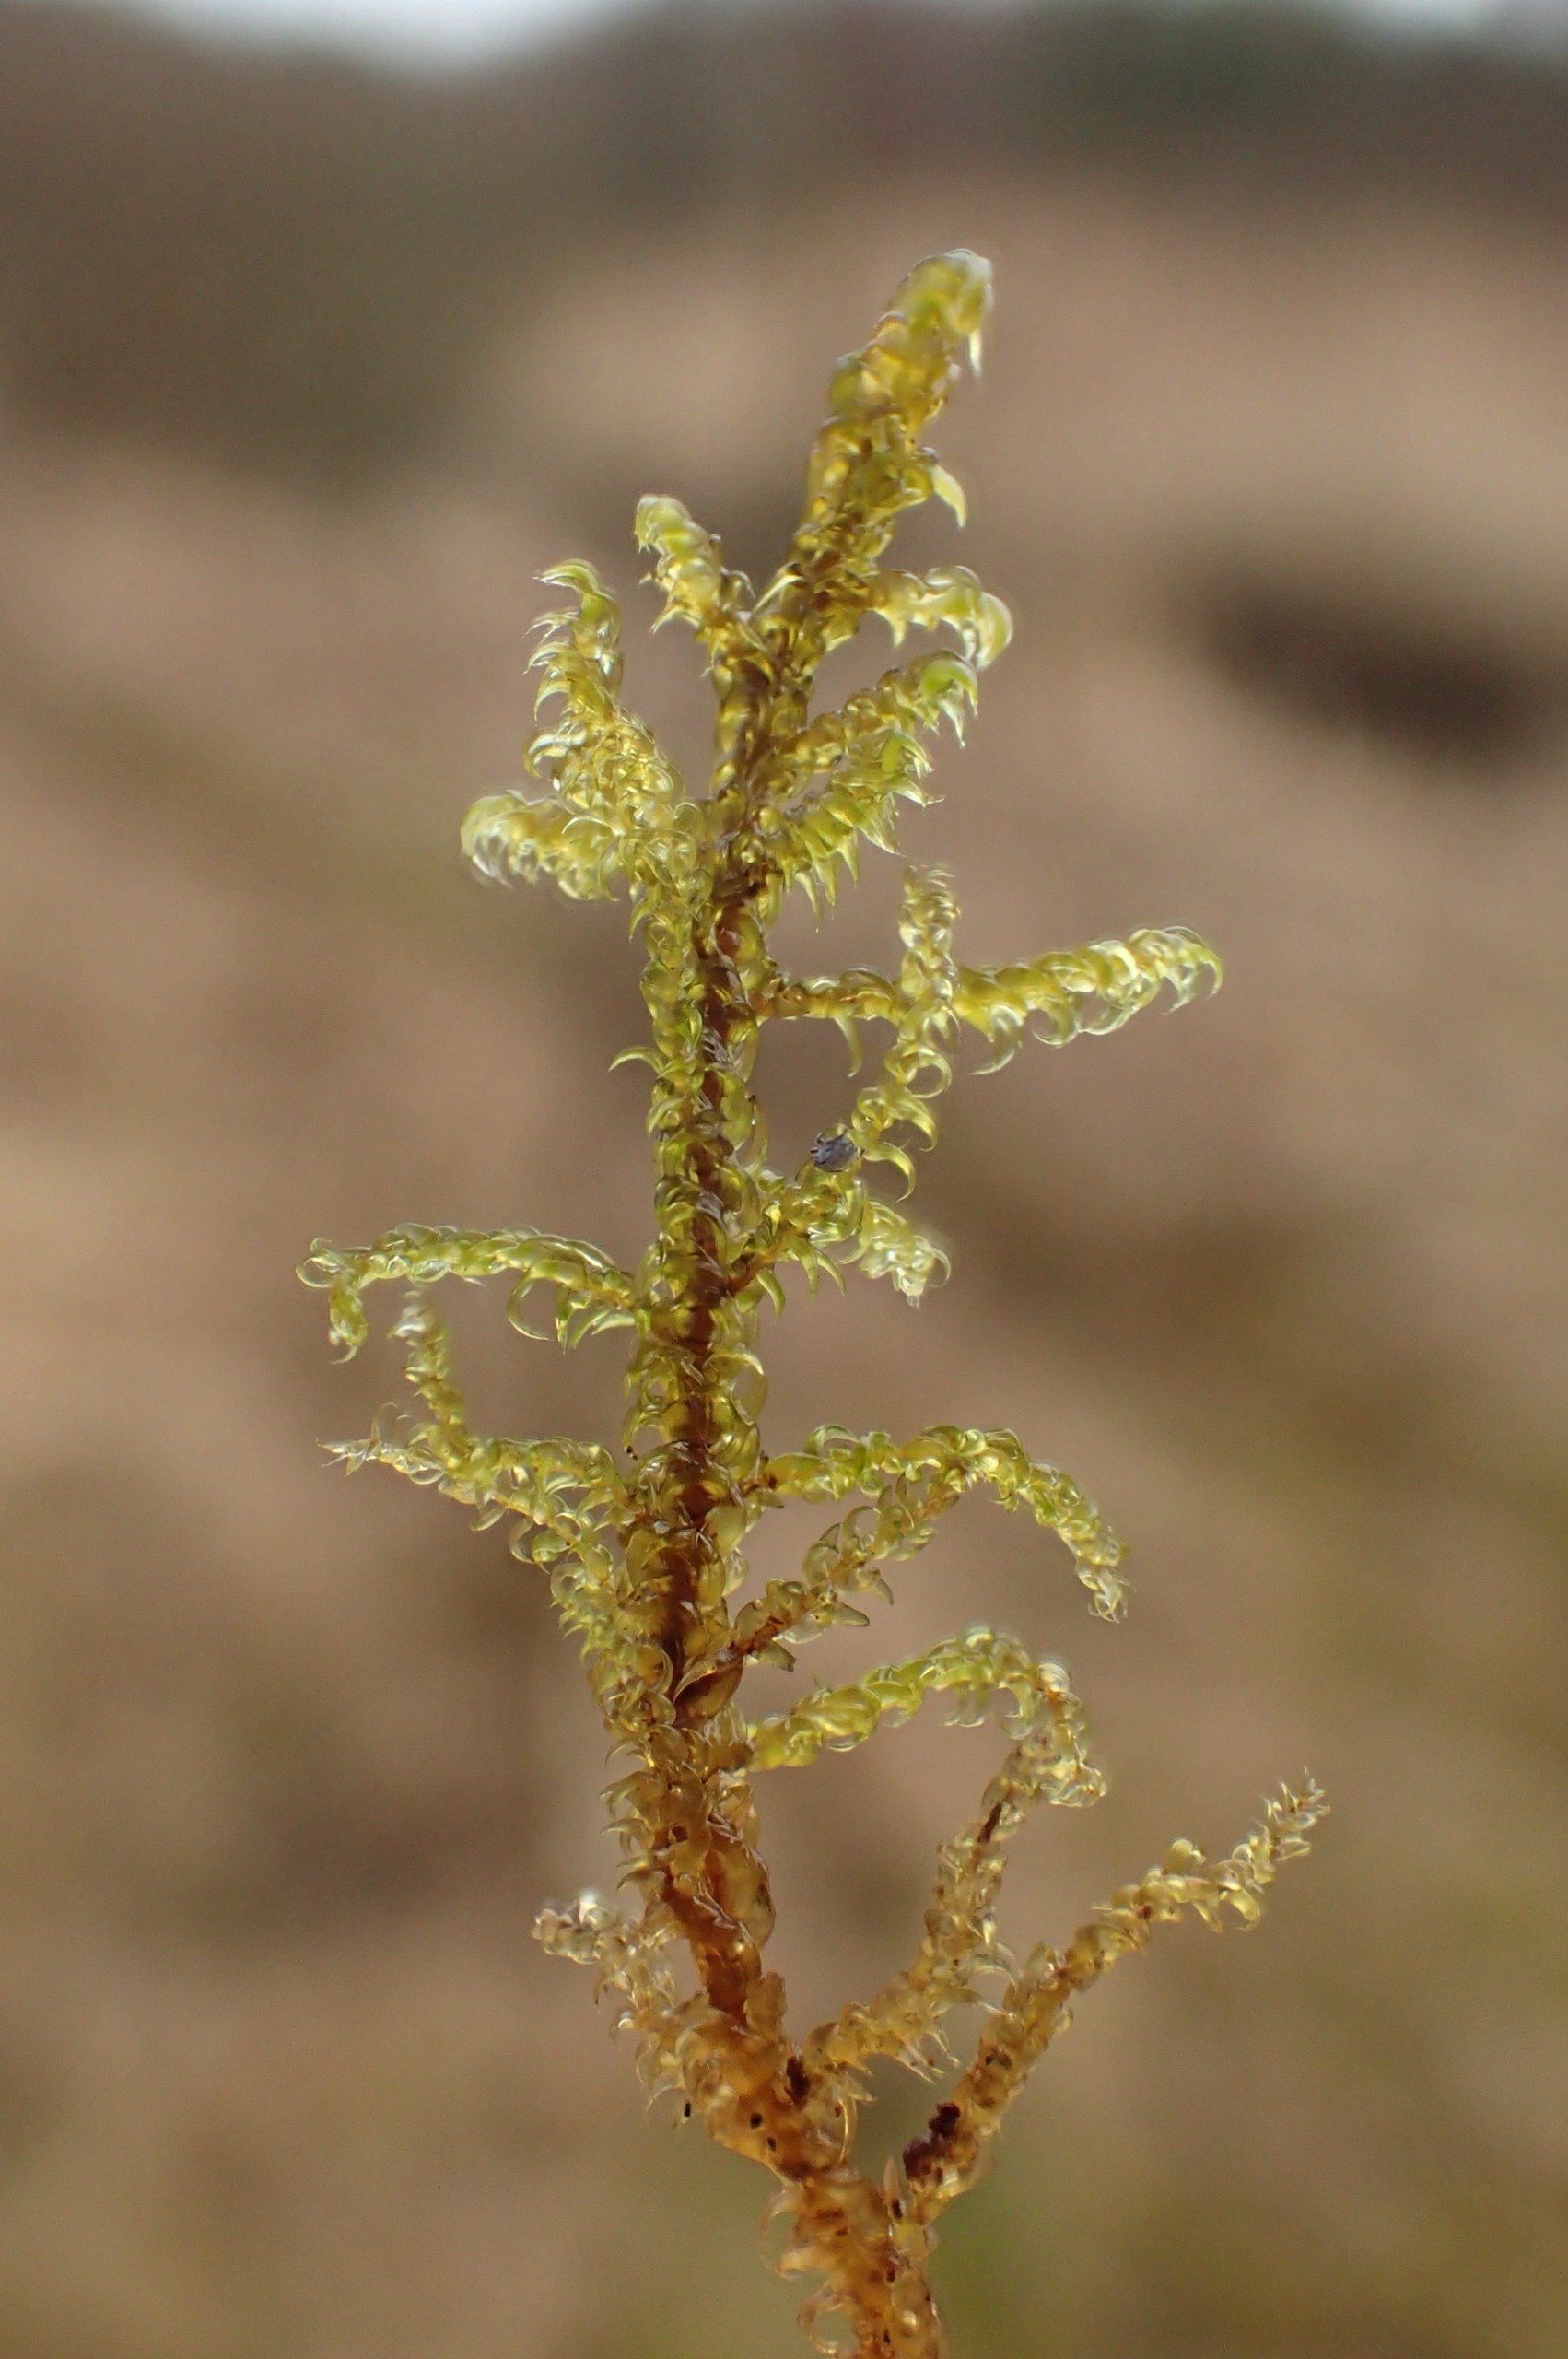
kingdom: Plantae
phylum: Bryophyta
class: Bryopsida
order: Hypnales
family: Scorpidiaceae
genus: Scorpidium
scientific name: Scorpidium cossonii
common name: Grøn krumblad
